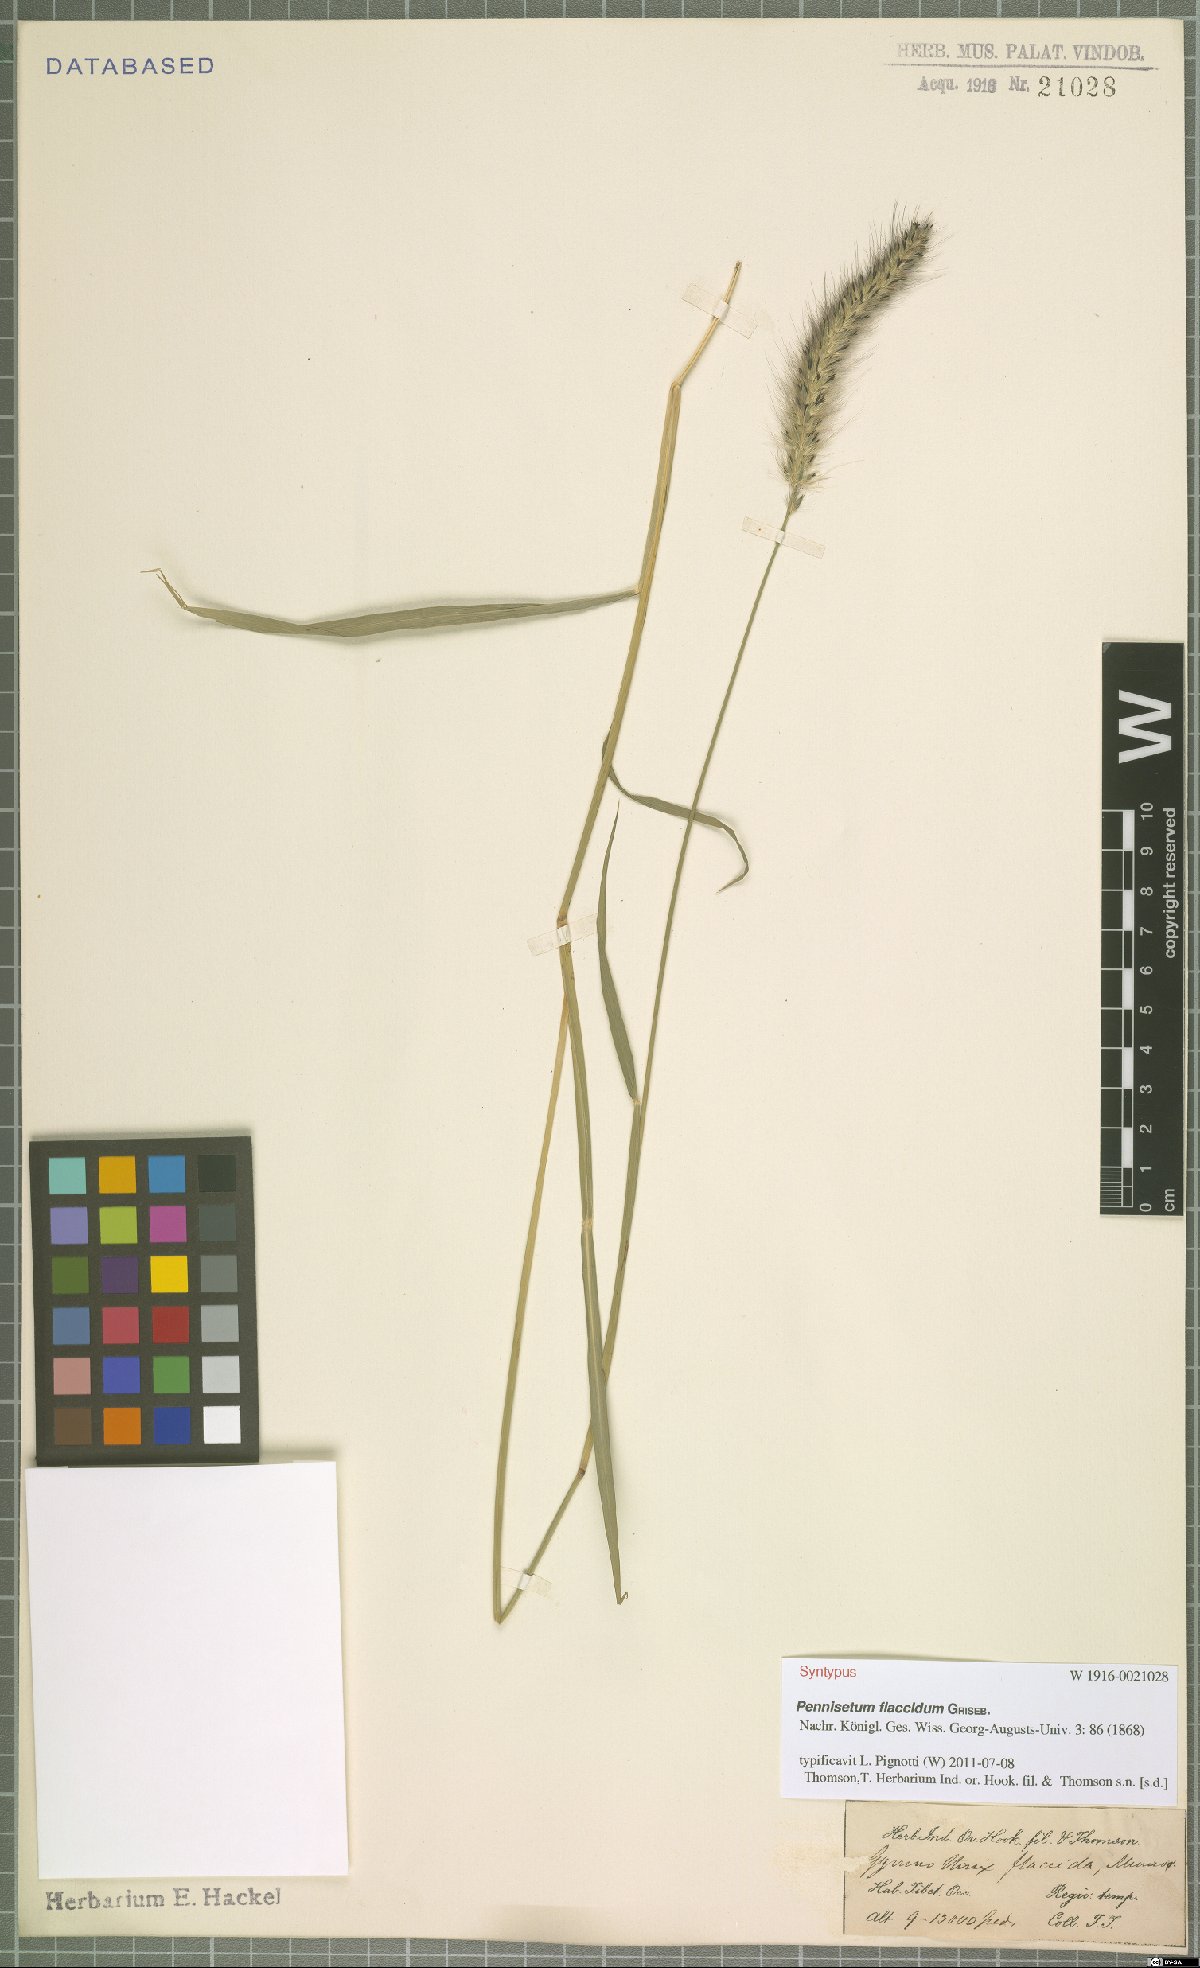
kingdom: Plantae
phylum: Tracheophyta
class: Liliopsida
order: Poales
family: Poaceae
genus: Cenchrus
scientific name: Cenchrus flaccidus
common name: Flaccid grass
